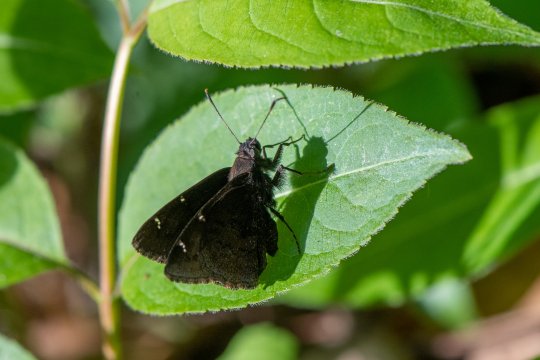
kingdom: Animalia
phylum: Arthropoda
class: Insecta
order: Lepidoptera
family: Hesperiidae
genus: Autochton
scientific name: Autochton
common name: Northern Cloudywing
